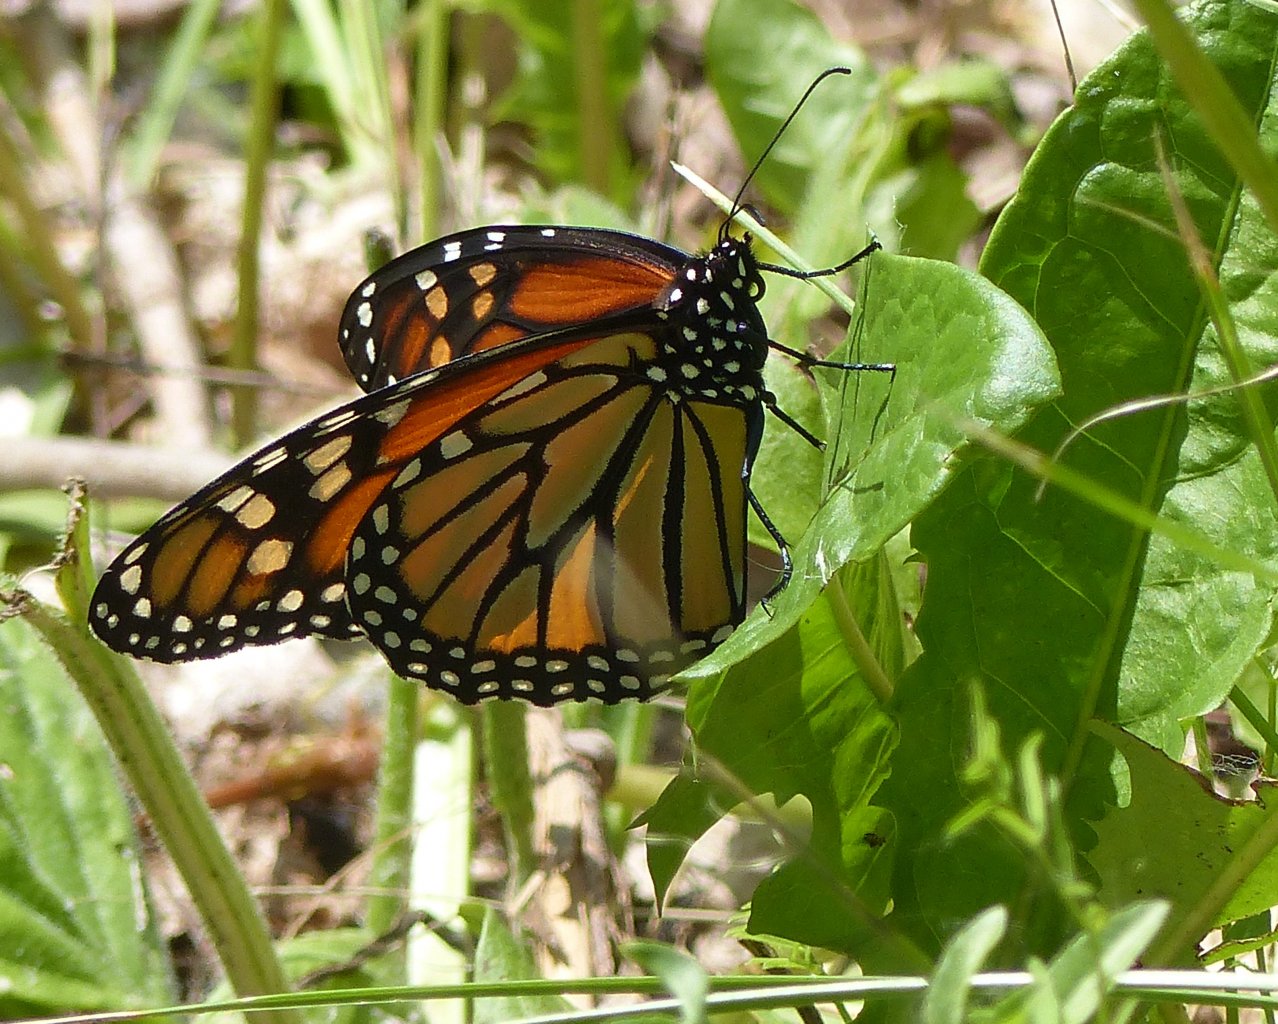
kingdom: Animalia
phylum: Arthropoda
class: Insecta
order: Lepidoptera
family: Nymphalidae
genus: Danaus
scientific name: Danaus plexippus
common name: Monarch
